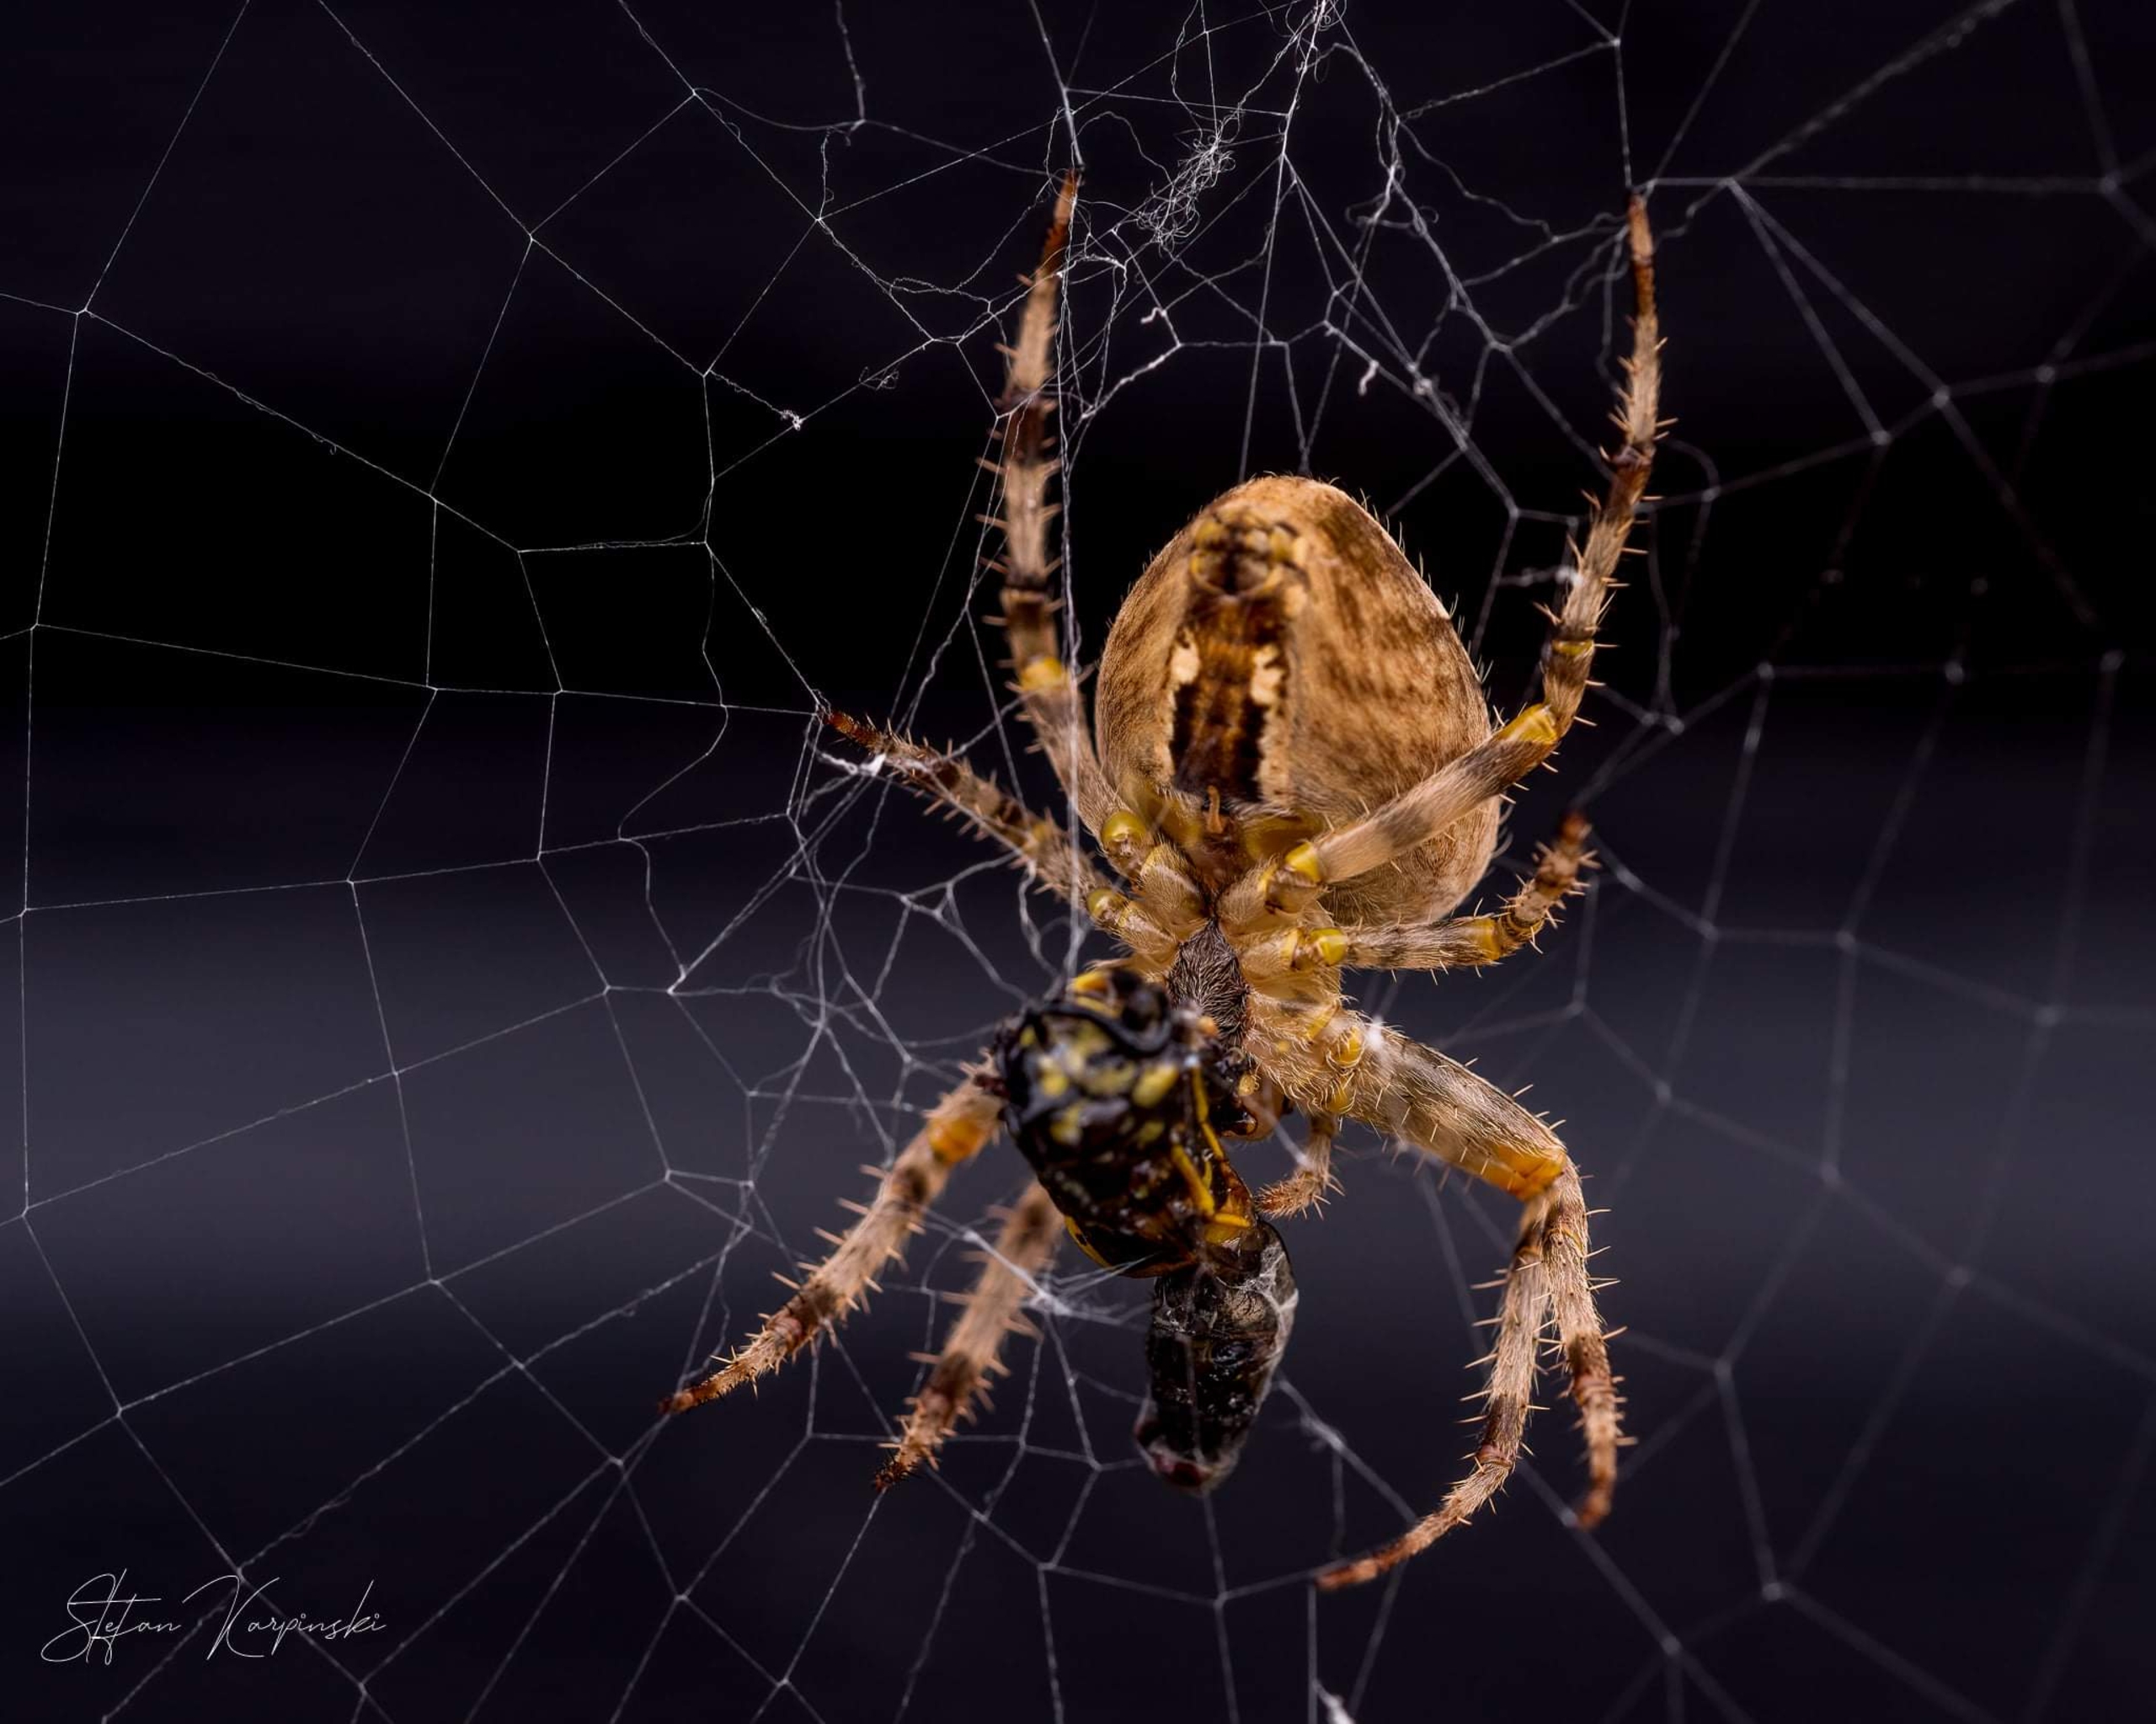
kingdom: Animalia
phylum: Arthropoda
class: Arachnida
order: Araneae
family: Araneidae
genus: Araneus
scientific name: Araneus diadematus
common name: Korsedderkop
